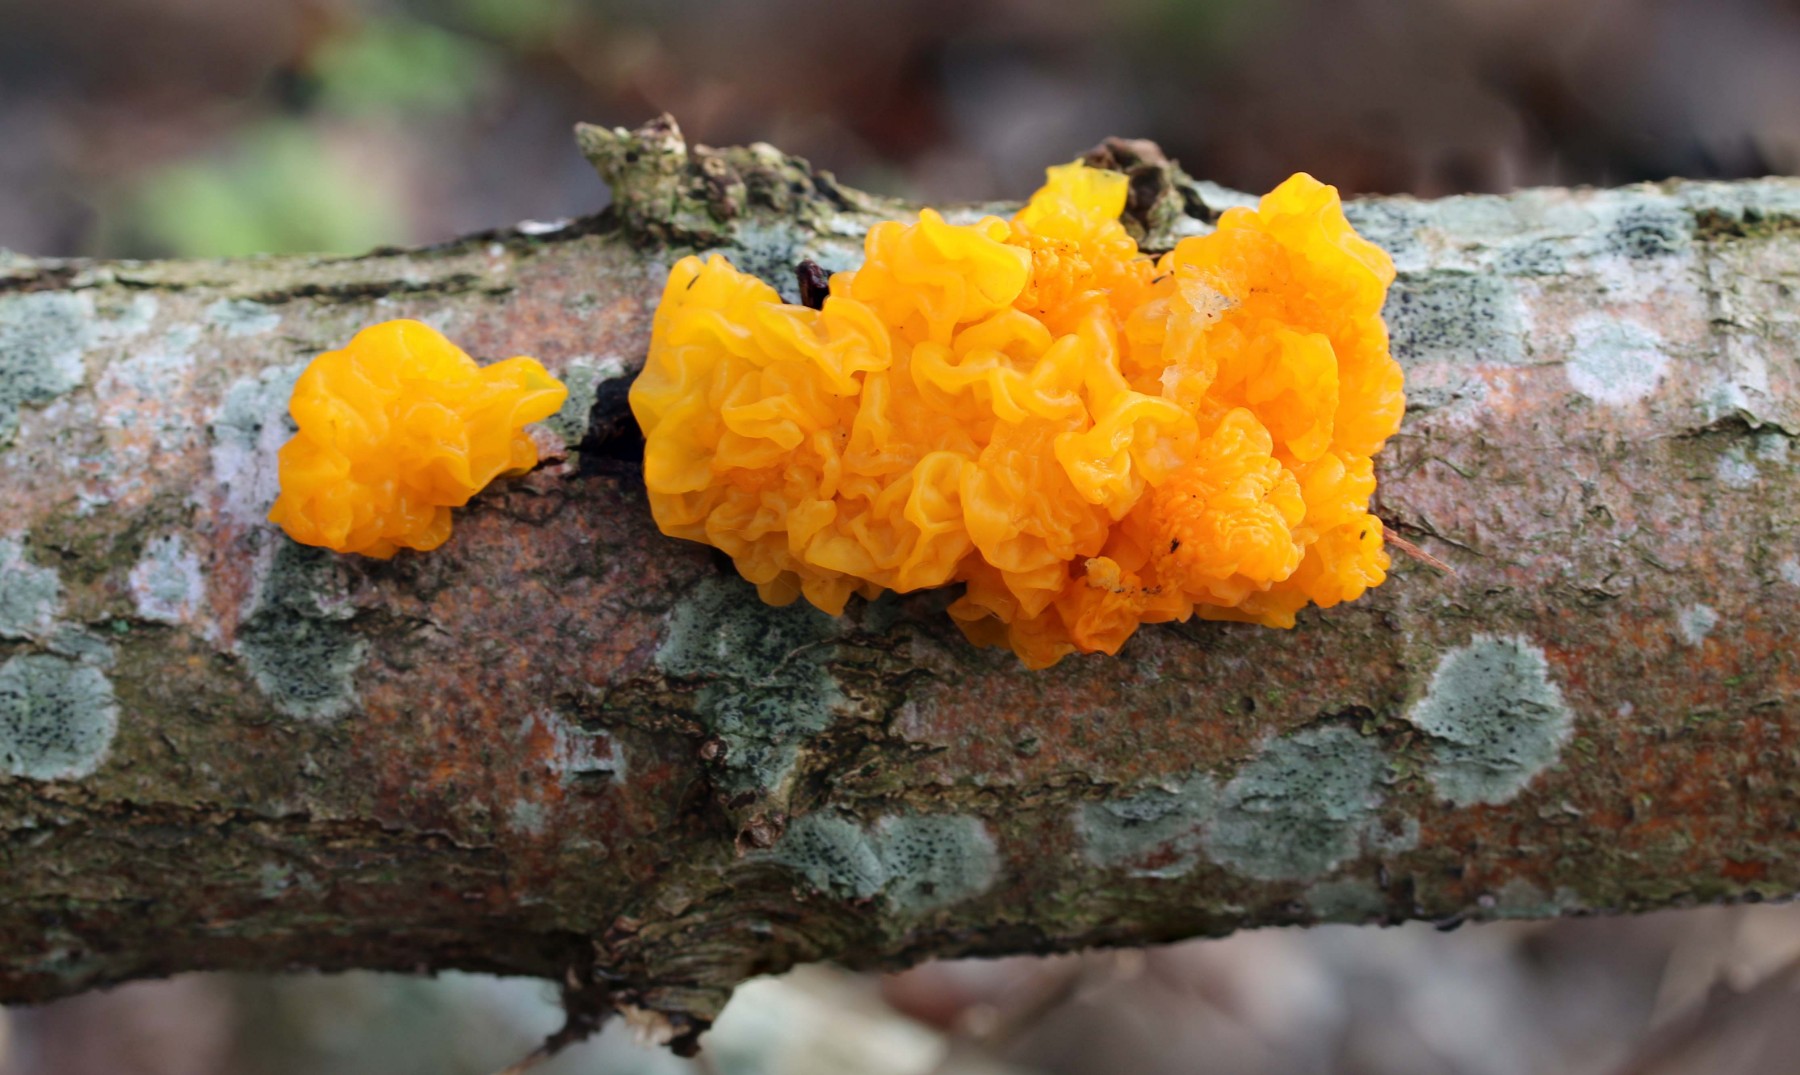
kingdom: Fungi
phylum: Basidiomycota
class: Tremellomycetes
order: Tremellales
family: Tremellaceae
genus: Tremella
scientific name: Tremella mesenterica
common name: gul bævresvamp
